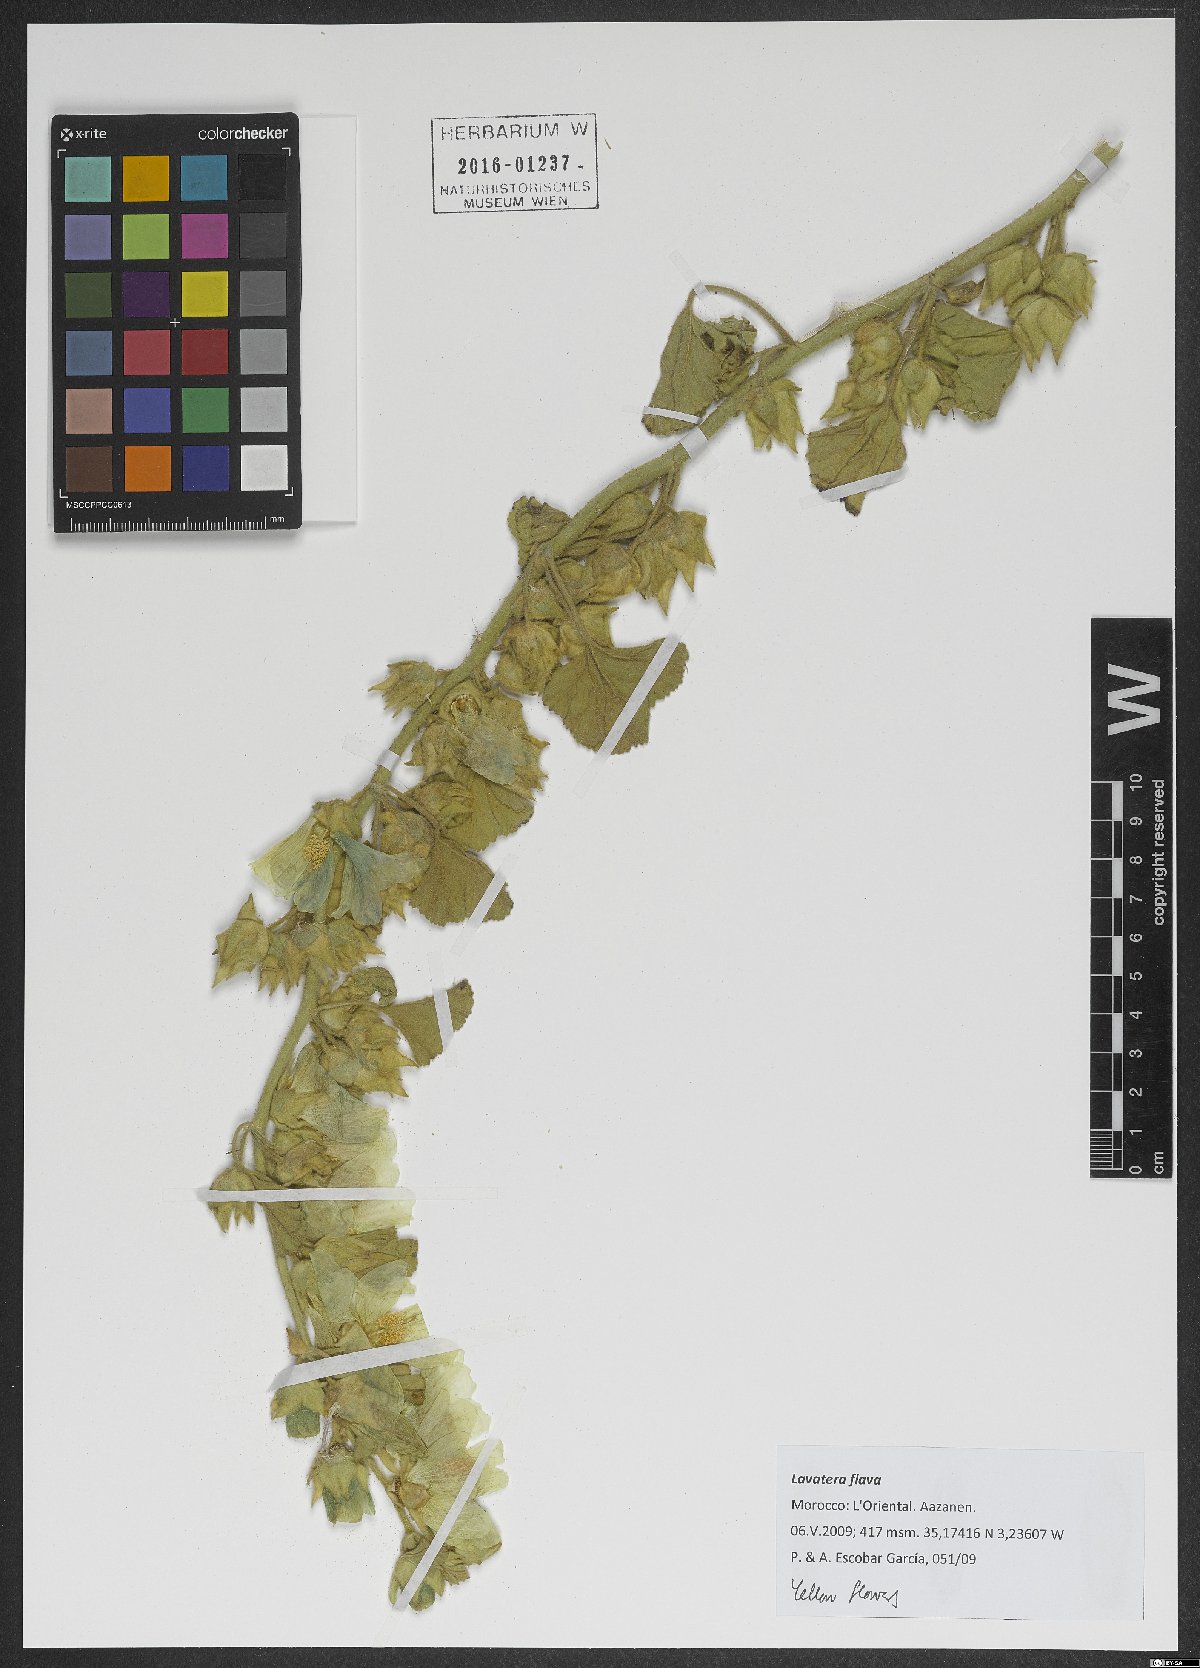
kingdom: Plantae
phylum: Tracheophyta
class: Magnoliopsida
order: Malvales
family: Malvaceae
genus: Malva
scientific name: Malva flava
